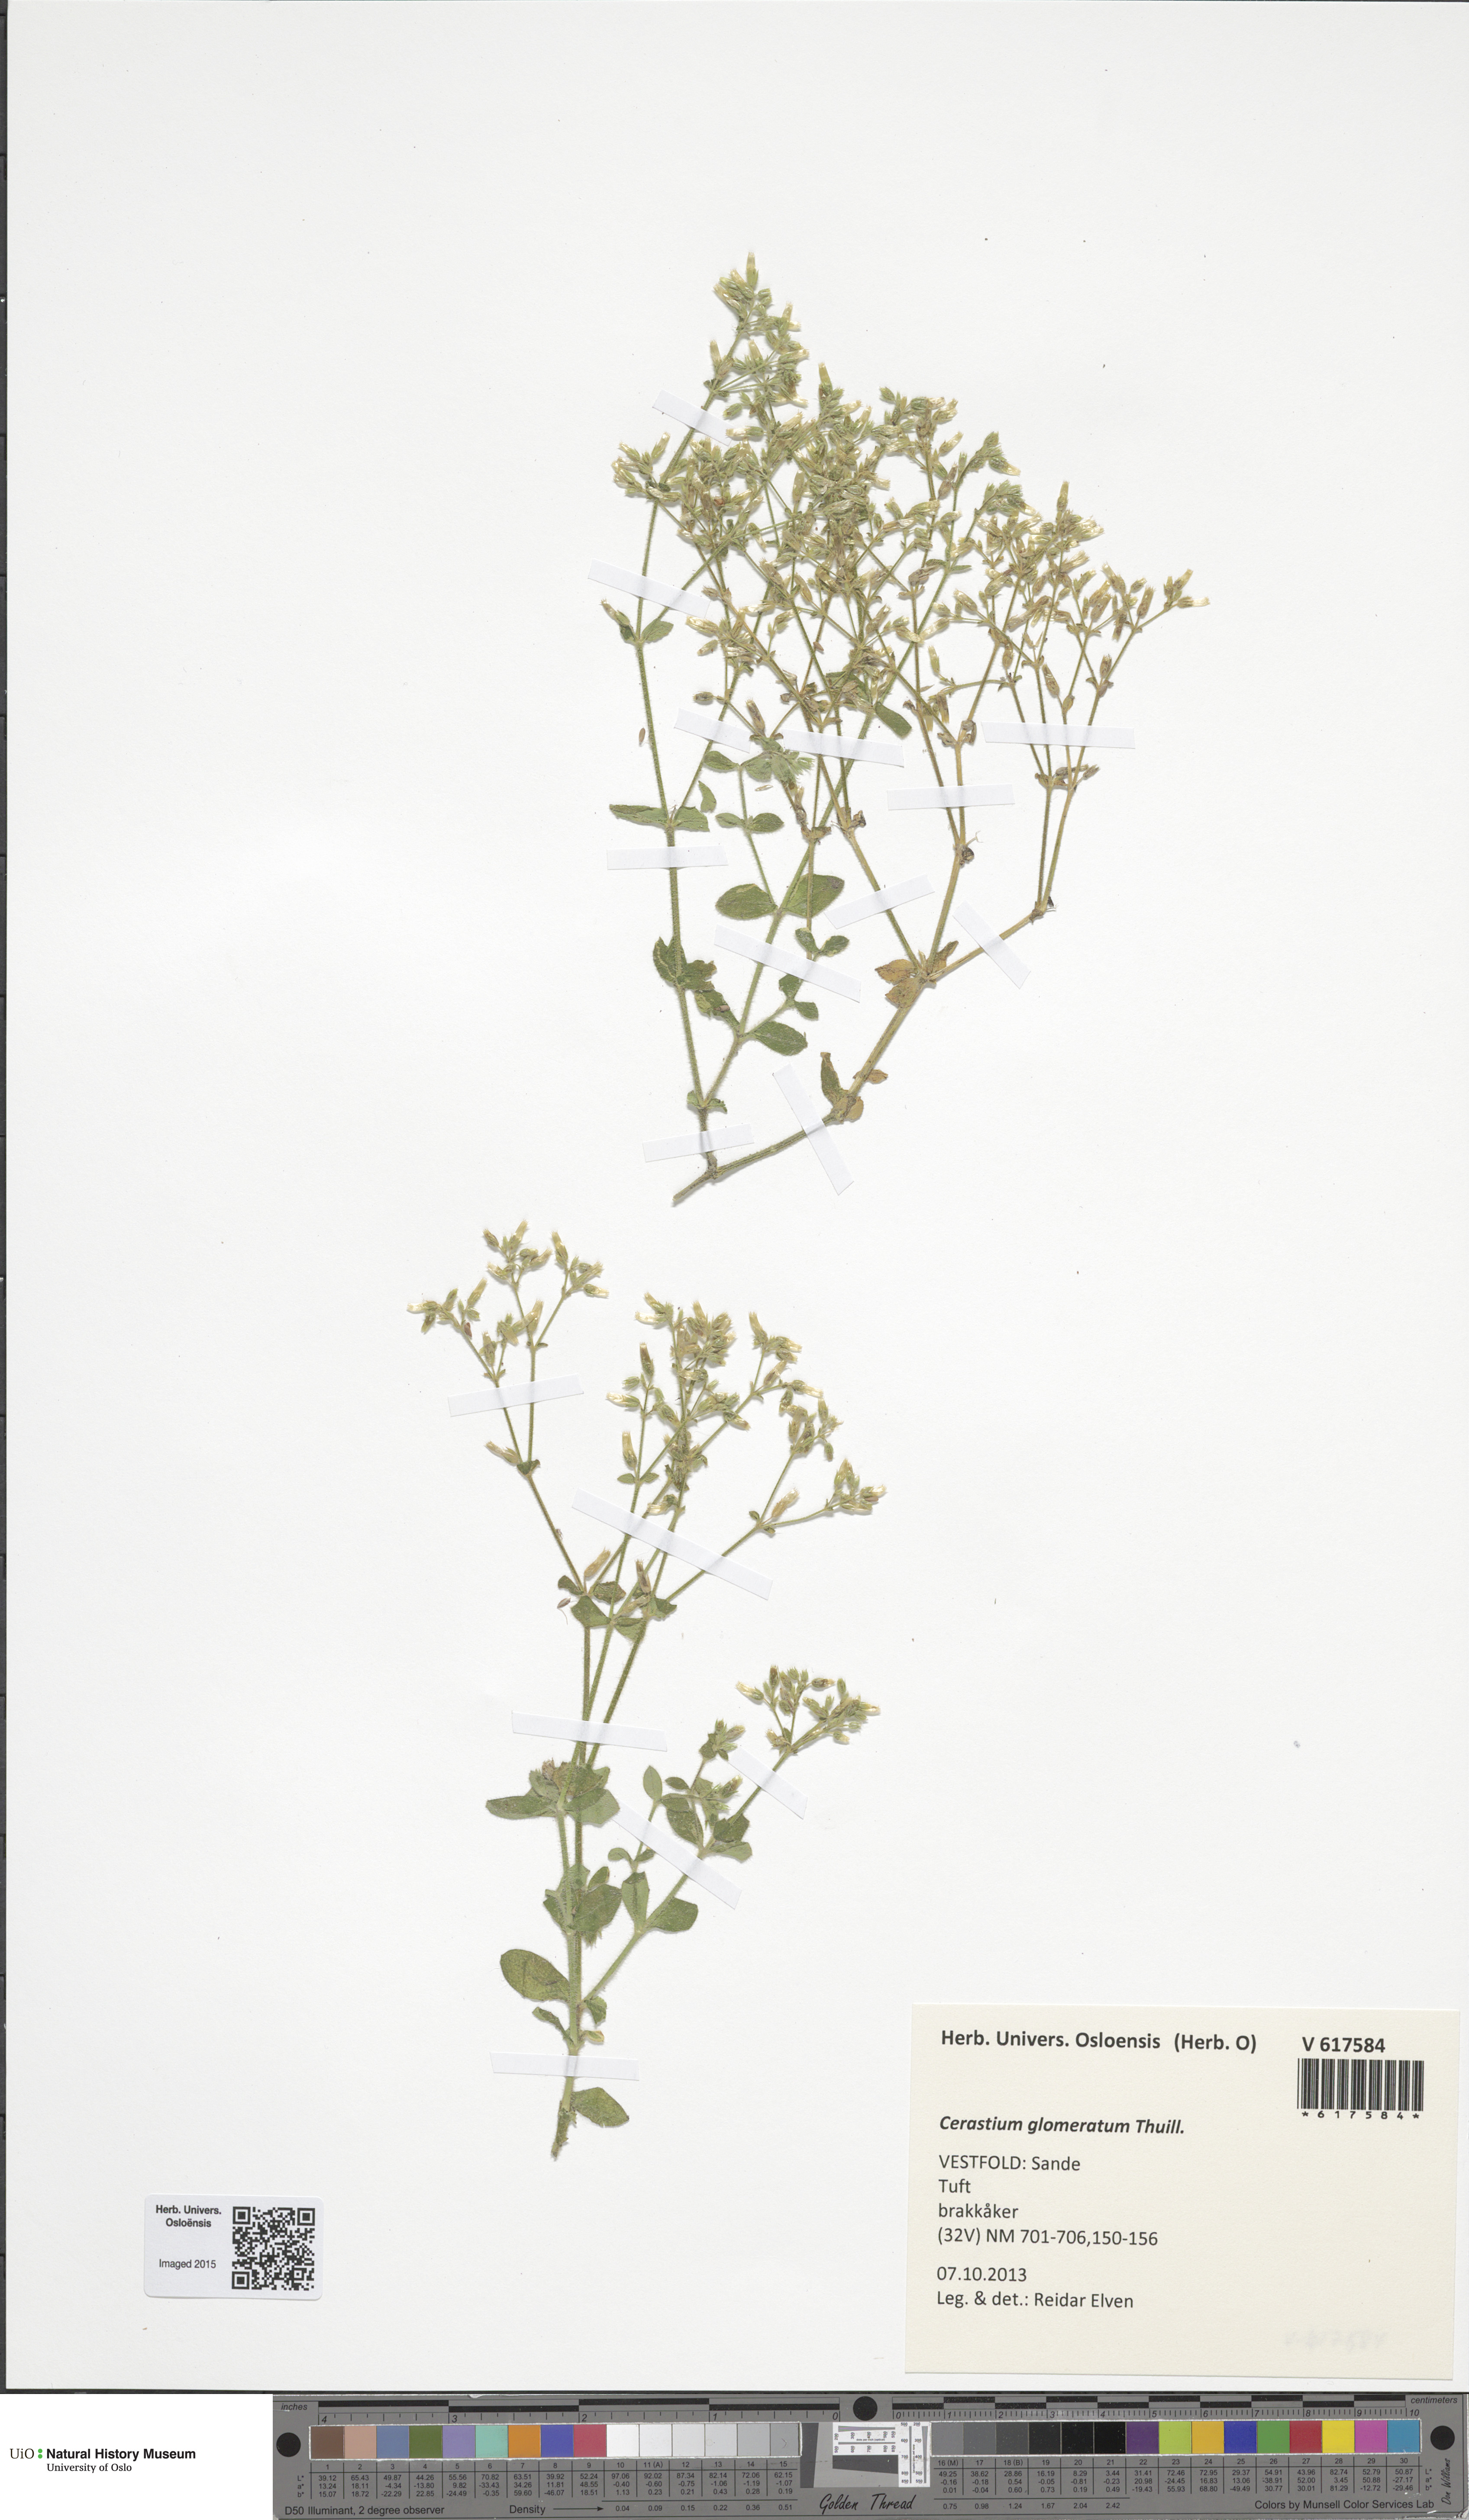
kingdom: Plantae
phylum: Tracheophyta
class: Magnoliopsida
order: Caryophyllales
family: Caryophyllaceae
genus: Cerastium
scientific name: Cerastium glomeratum
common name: Sticky chickweed
